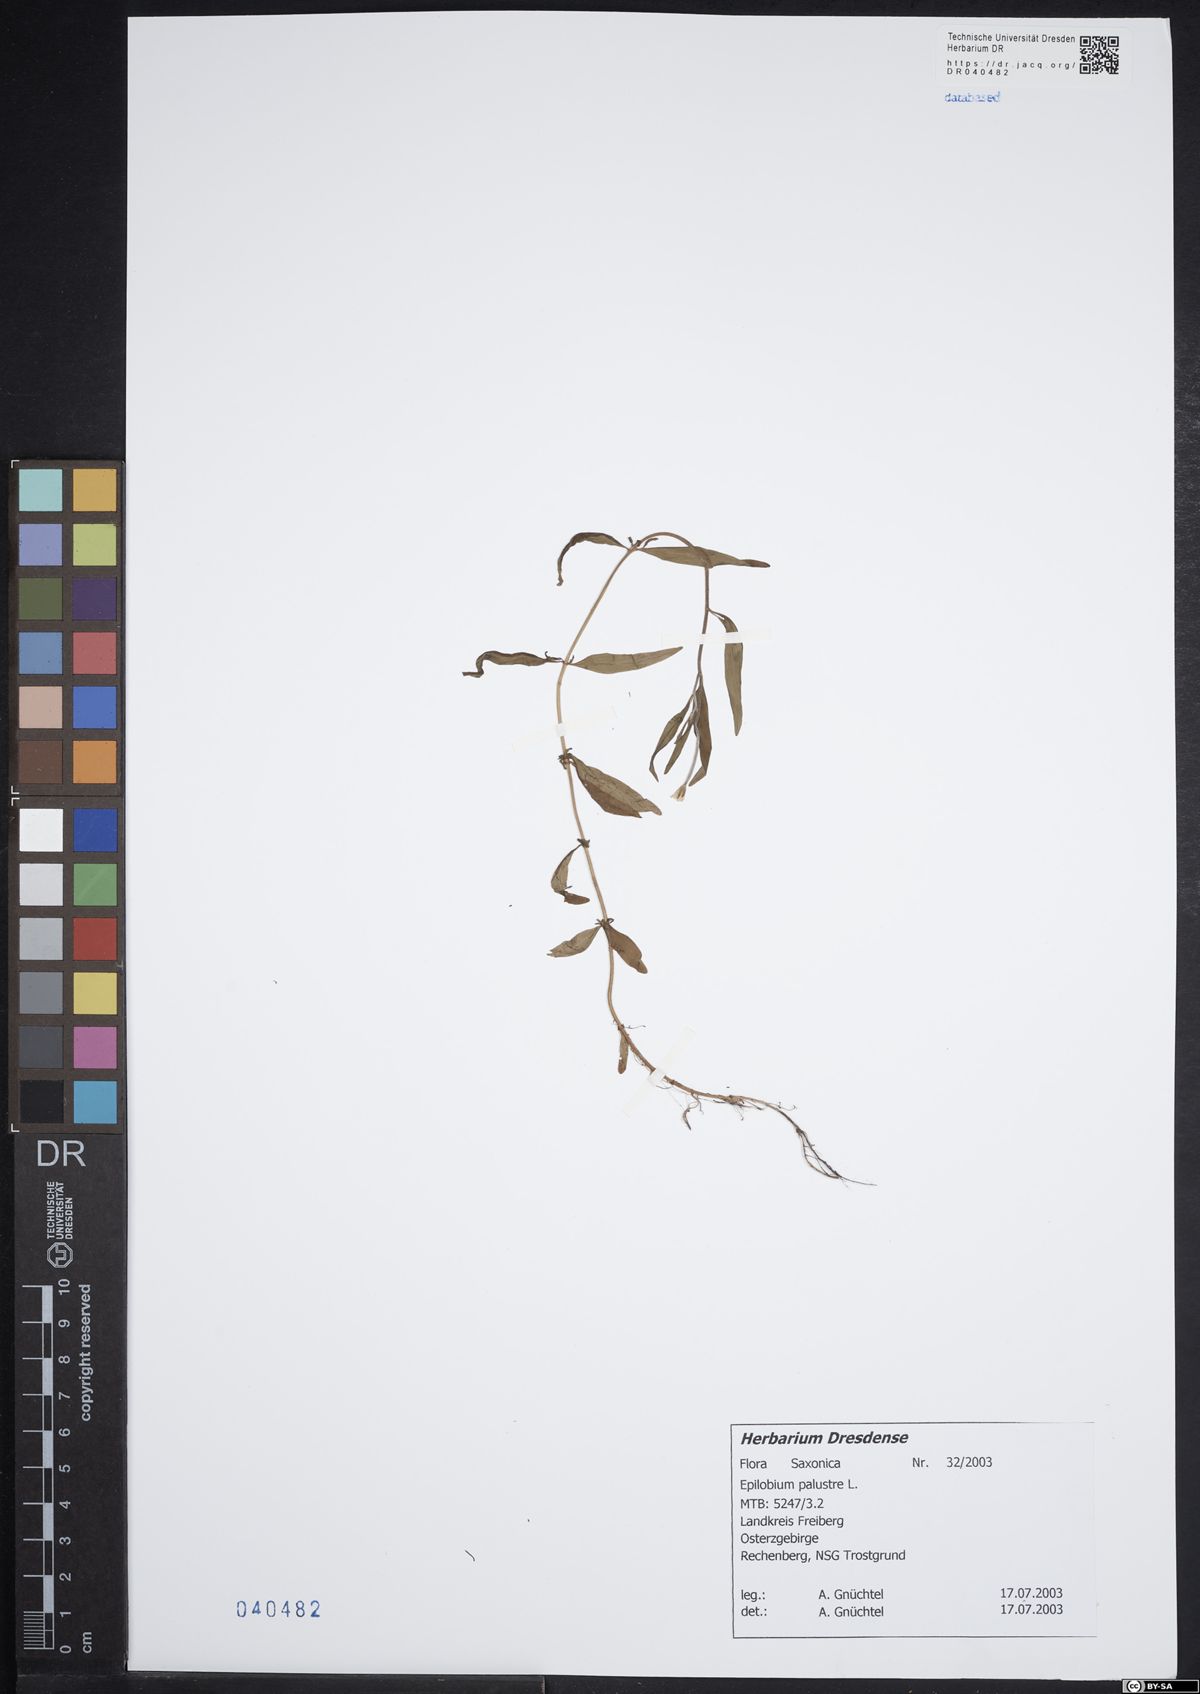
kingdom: Plantae
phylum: Tracheophyta
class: Magnoliopsida
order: Myrtales
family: Onagraceae
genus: Epilobium
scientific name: Epilobium palustre
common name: Marsh willowherb
